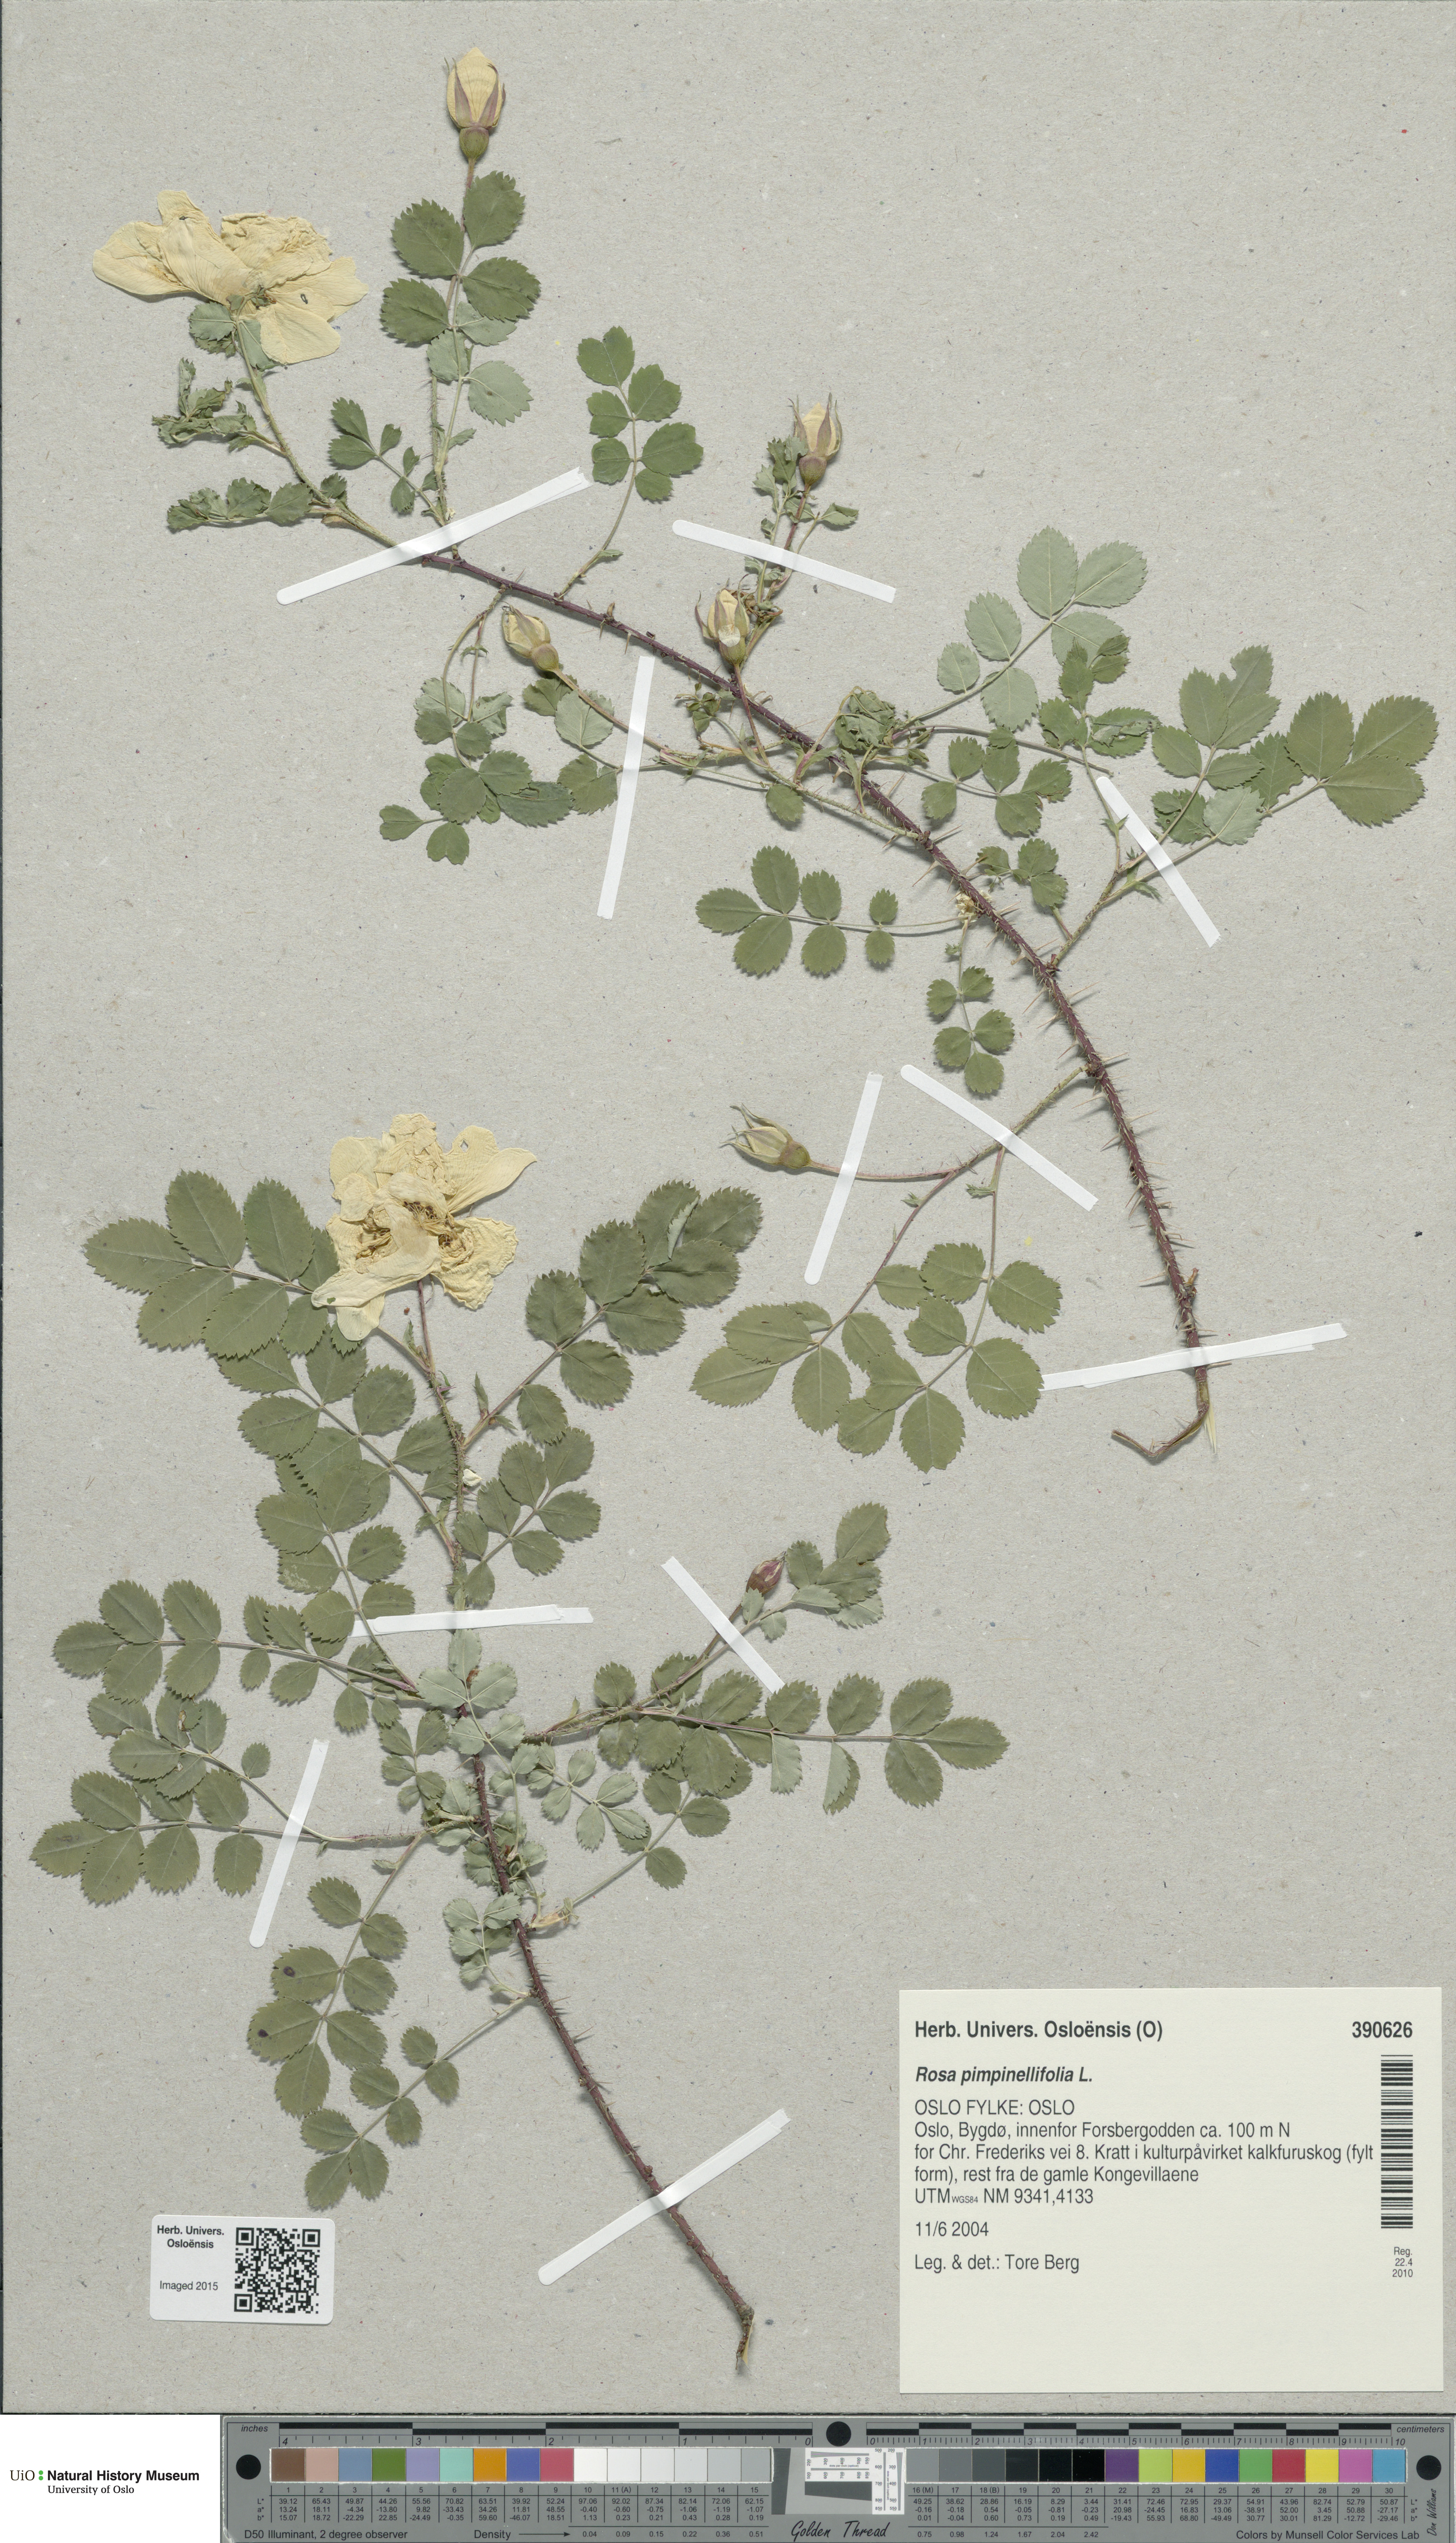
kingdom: Plantae
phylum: Tracheophyta
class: Magnoliopsida
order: Rosales
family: Rosaceae
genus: Rosa
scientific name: Rosa spinosissima
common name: Burnet rose
